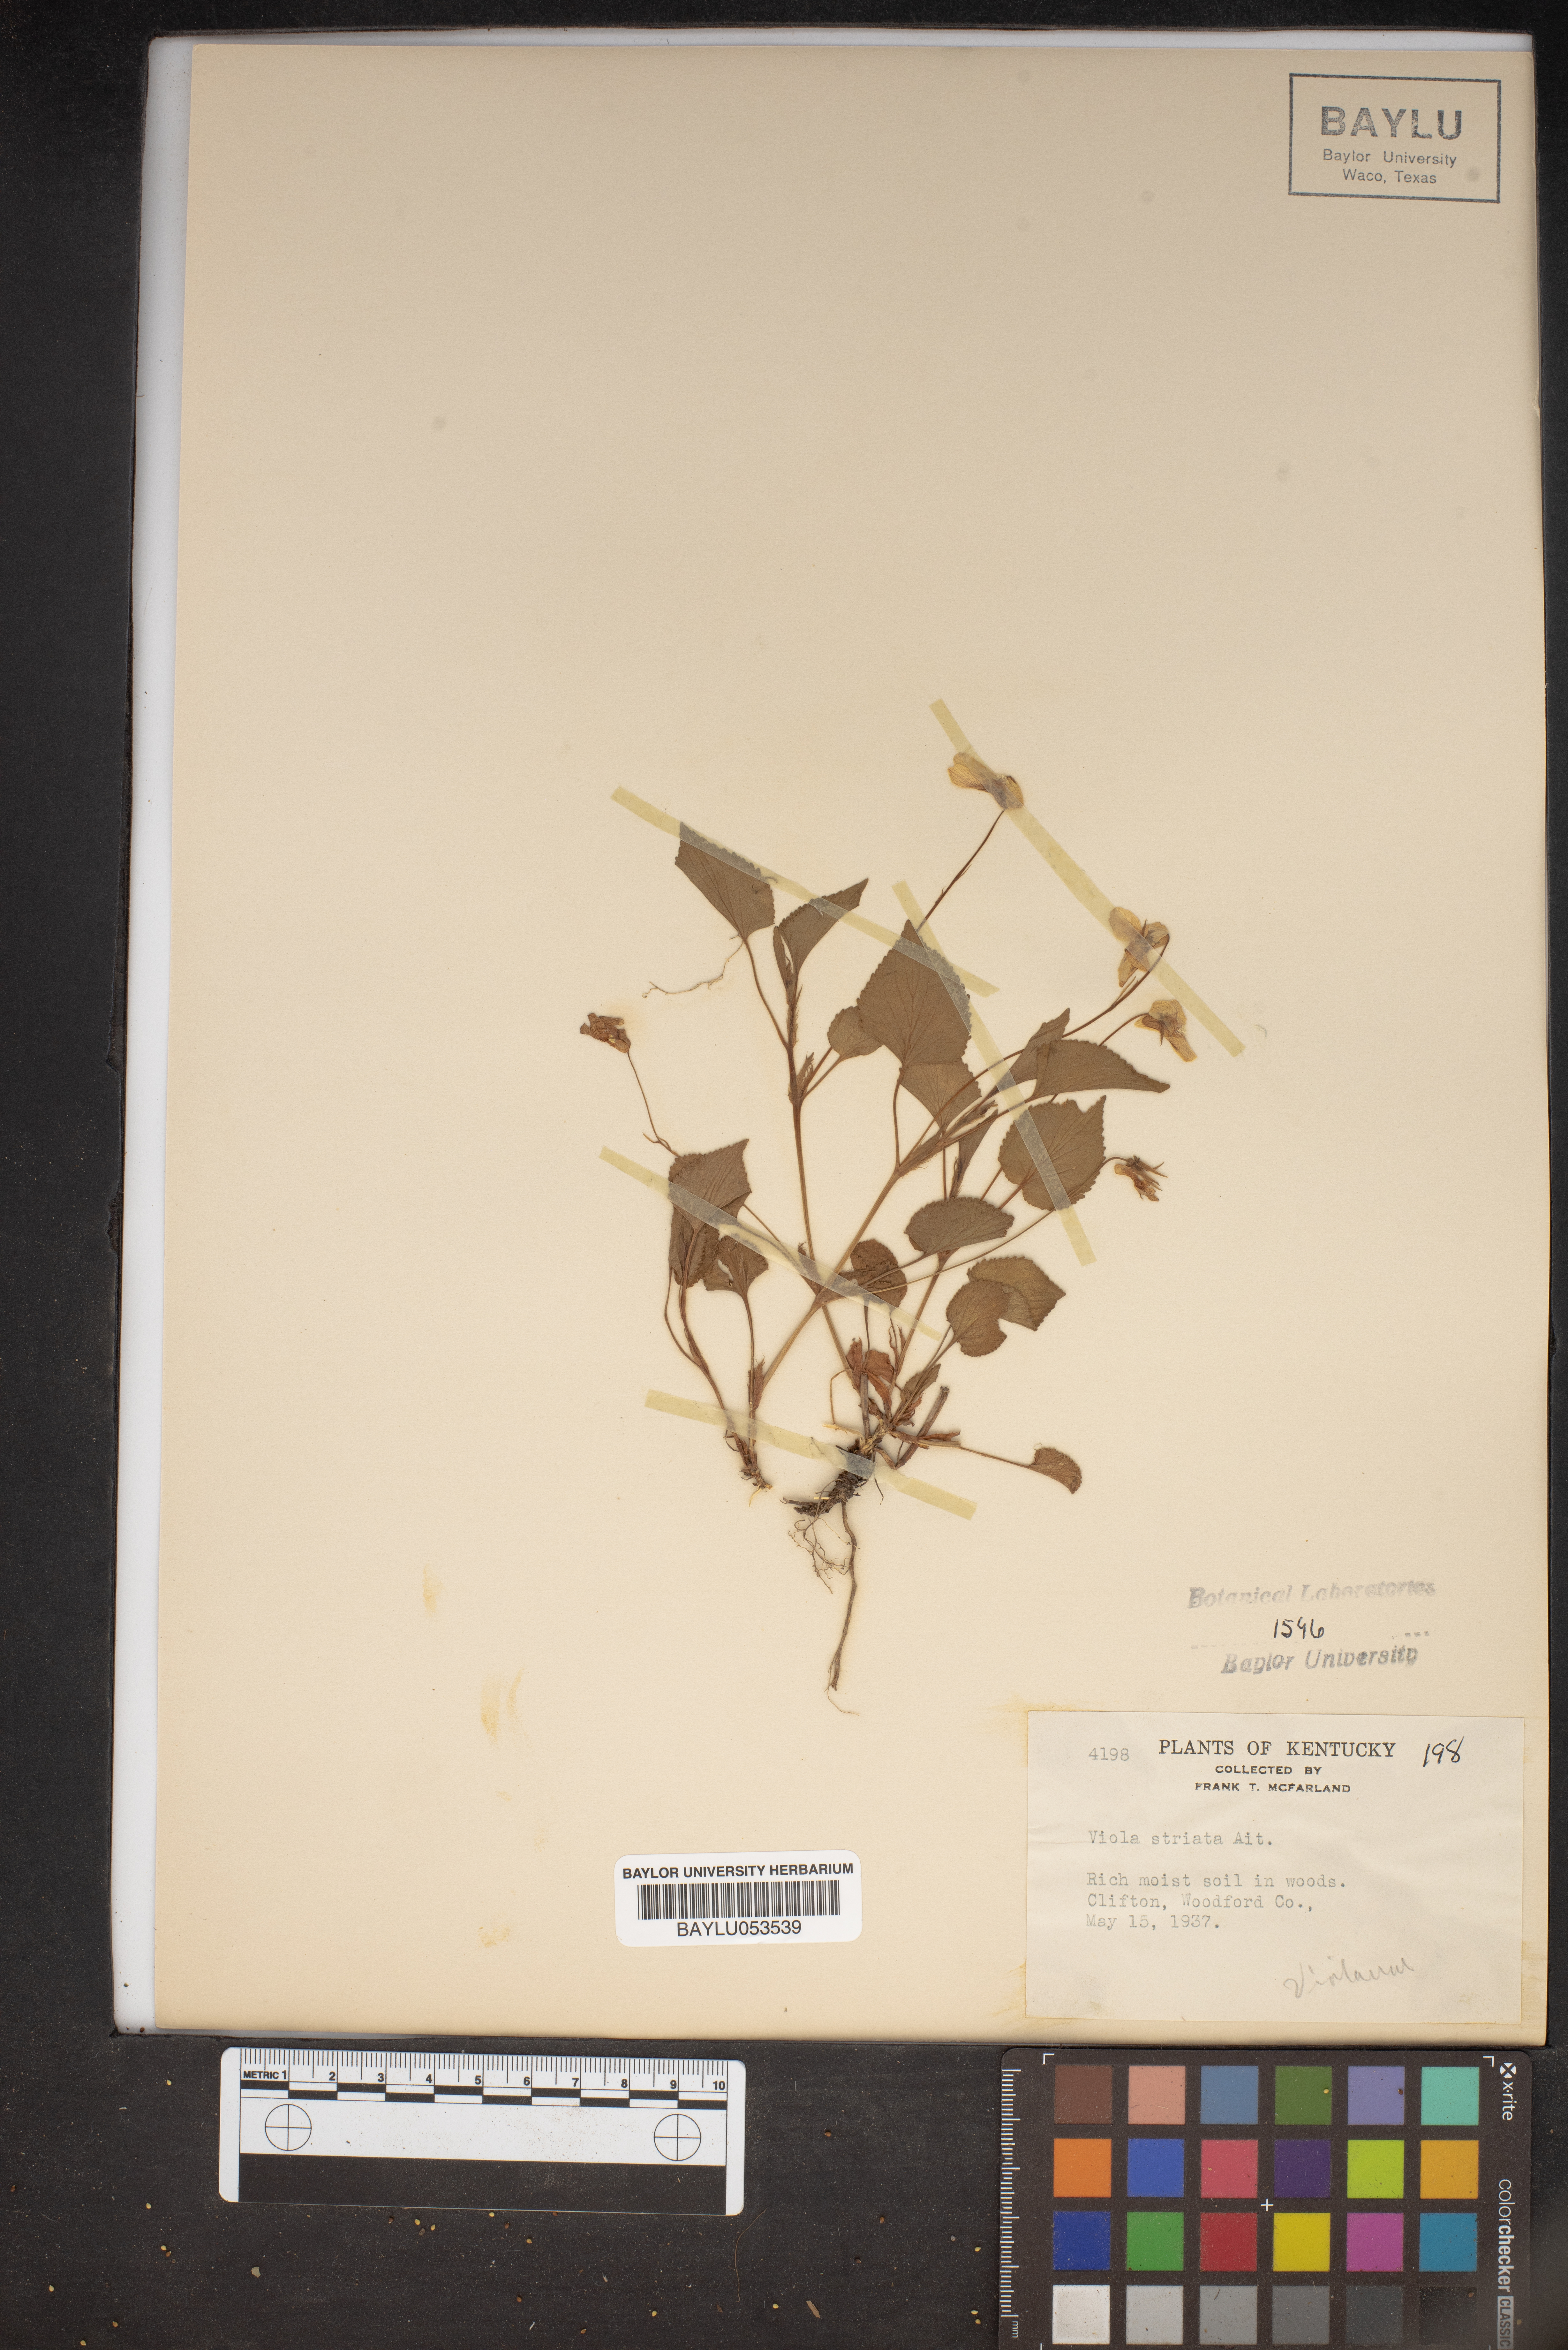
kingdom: Plantae
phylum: Tracheophyta
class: Magnoliopsida
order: Malpighiales
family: Violaceae
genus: Viola
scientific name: Viola striata
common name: Cream violet
